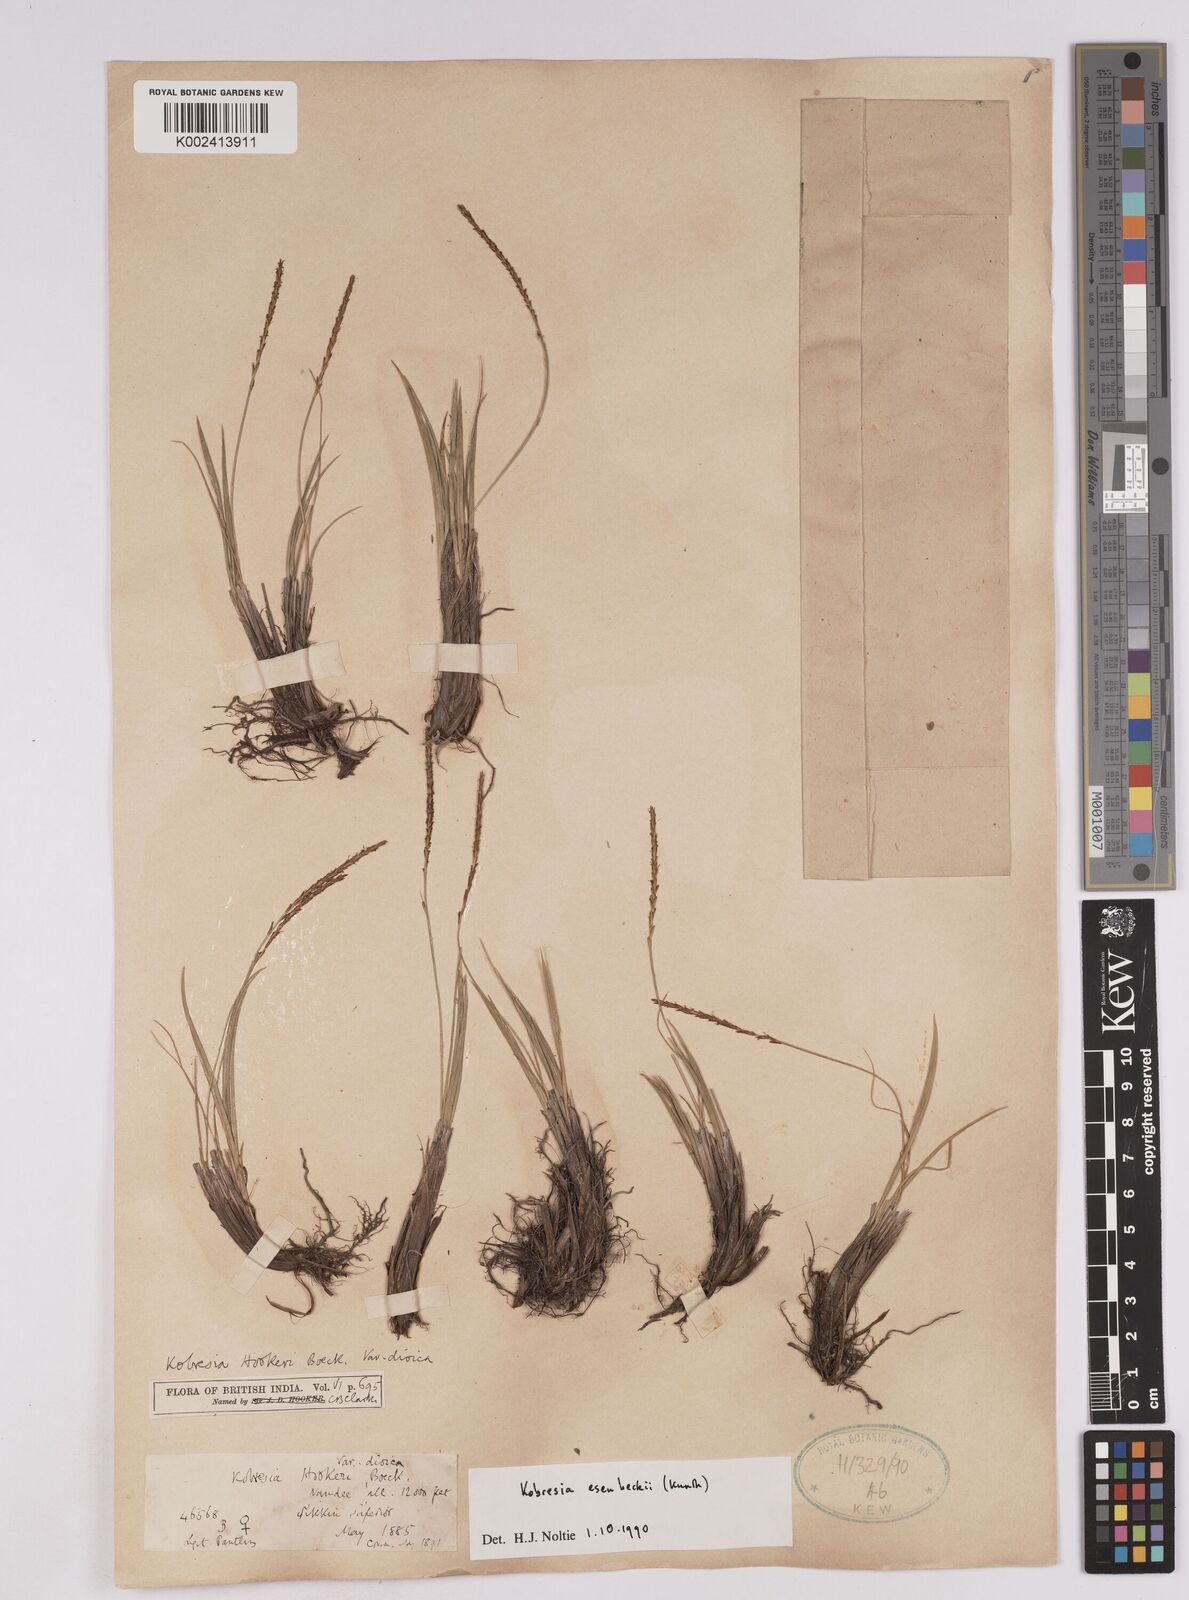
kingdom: Plantae
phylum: Tracheophyta
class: Liliopsida
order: Poales
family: Cyperaceae
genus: Carex
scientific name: Carex esenbeckii
